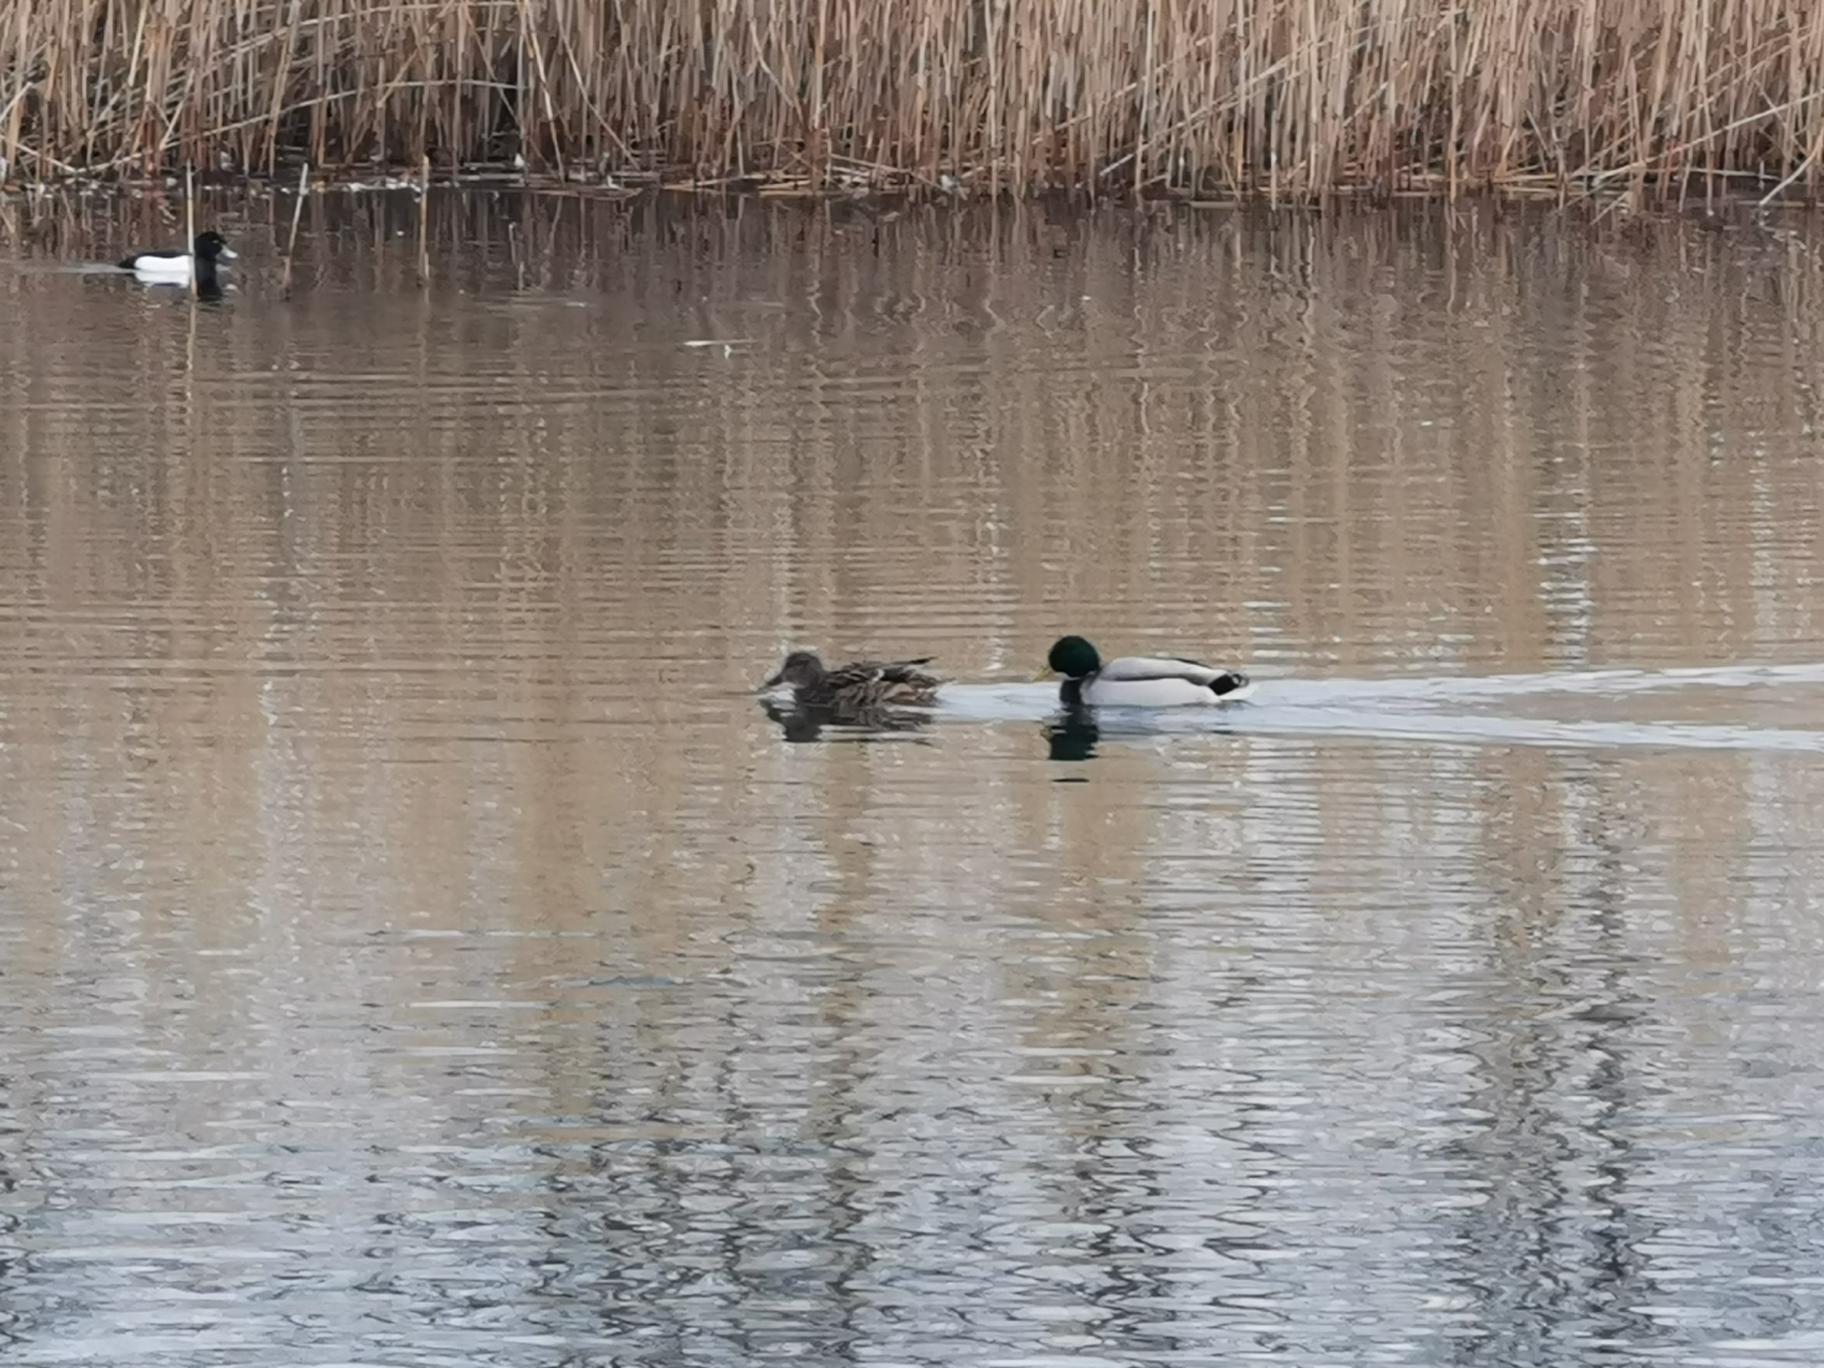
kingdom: Animalia
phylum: Chordata
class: Aves
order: Anseriformes
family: Anatidae
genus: Anas
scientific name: Anas platyrhynchos
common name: Gråand
